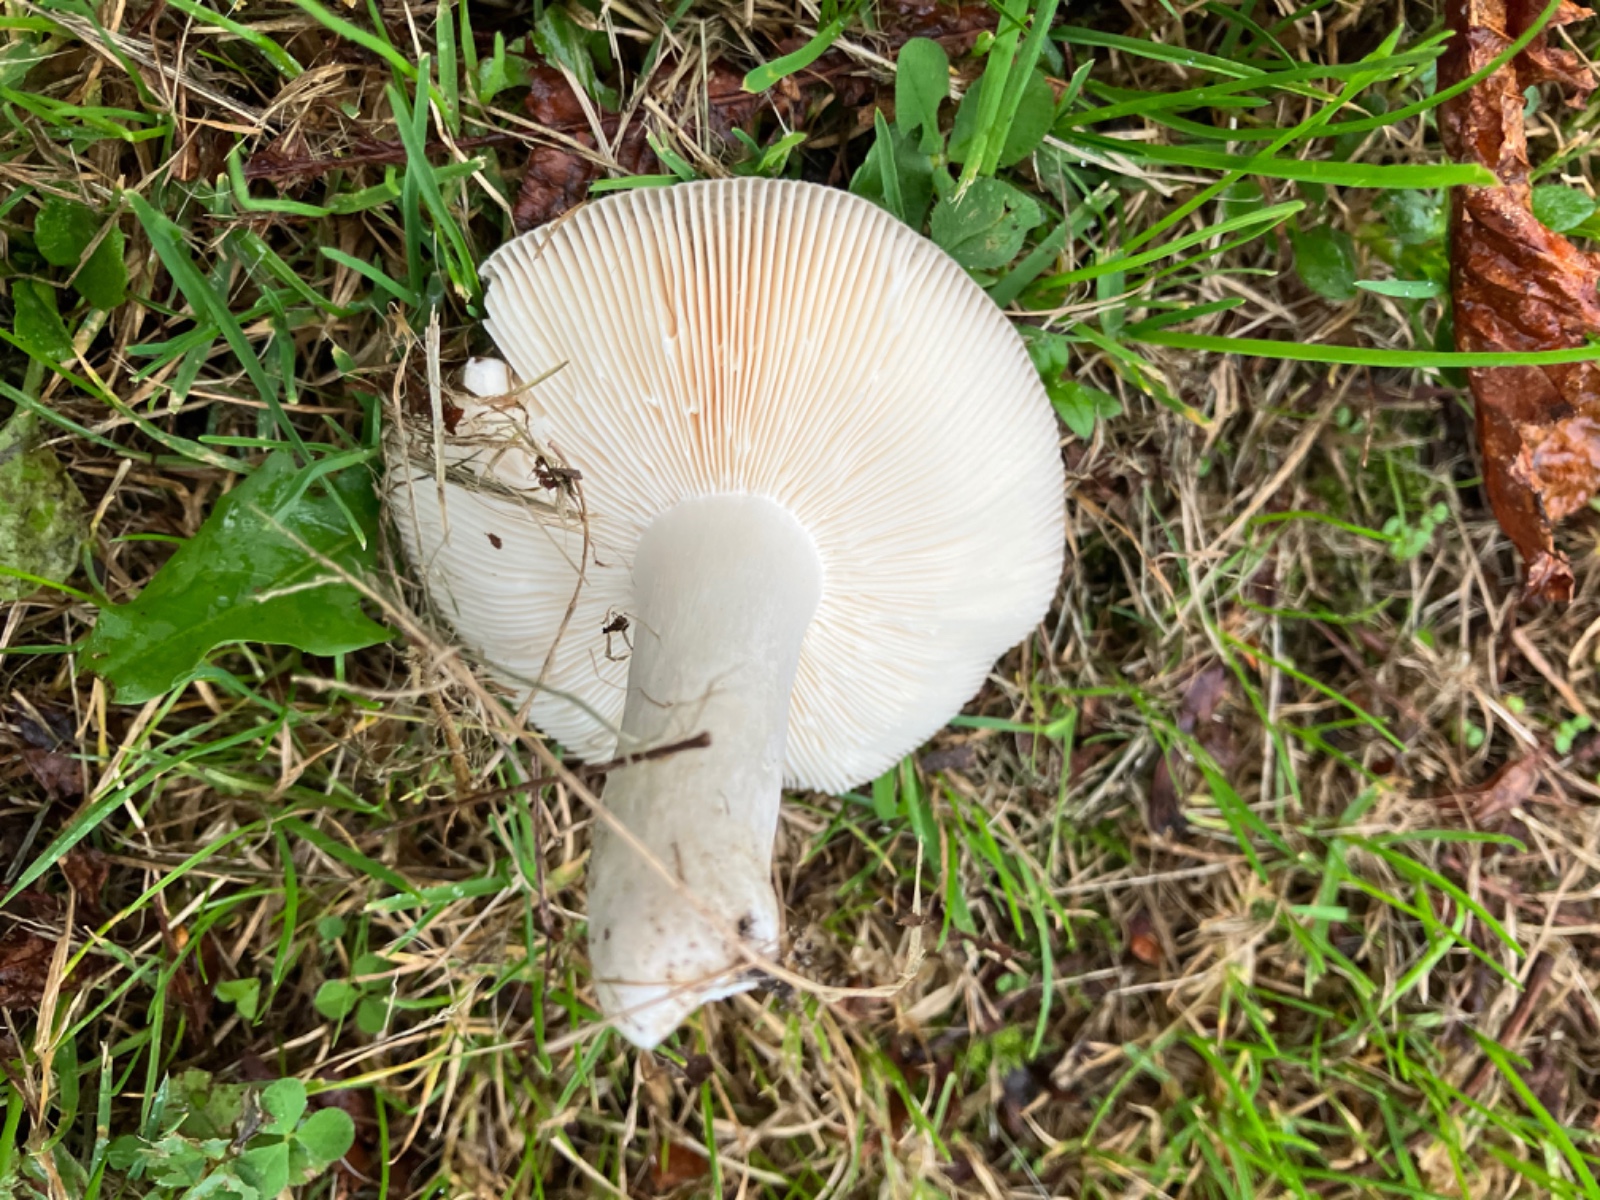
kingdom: Fungi
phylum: Basidiomycota
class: Agaricomycetes
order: Russulales
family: Russulaceae
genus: Russula
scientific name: Russula
